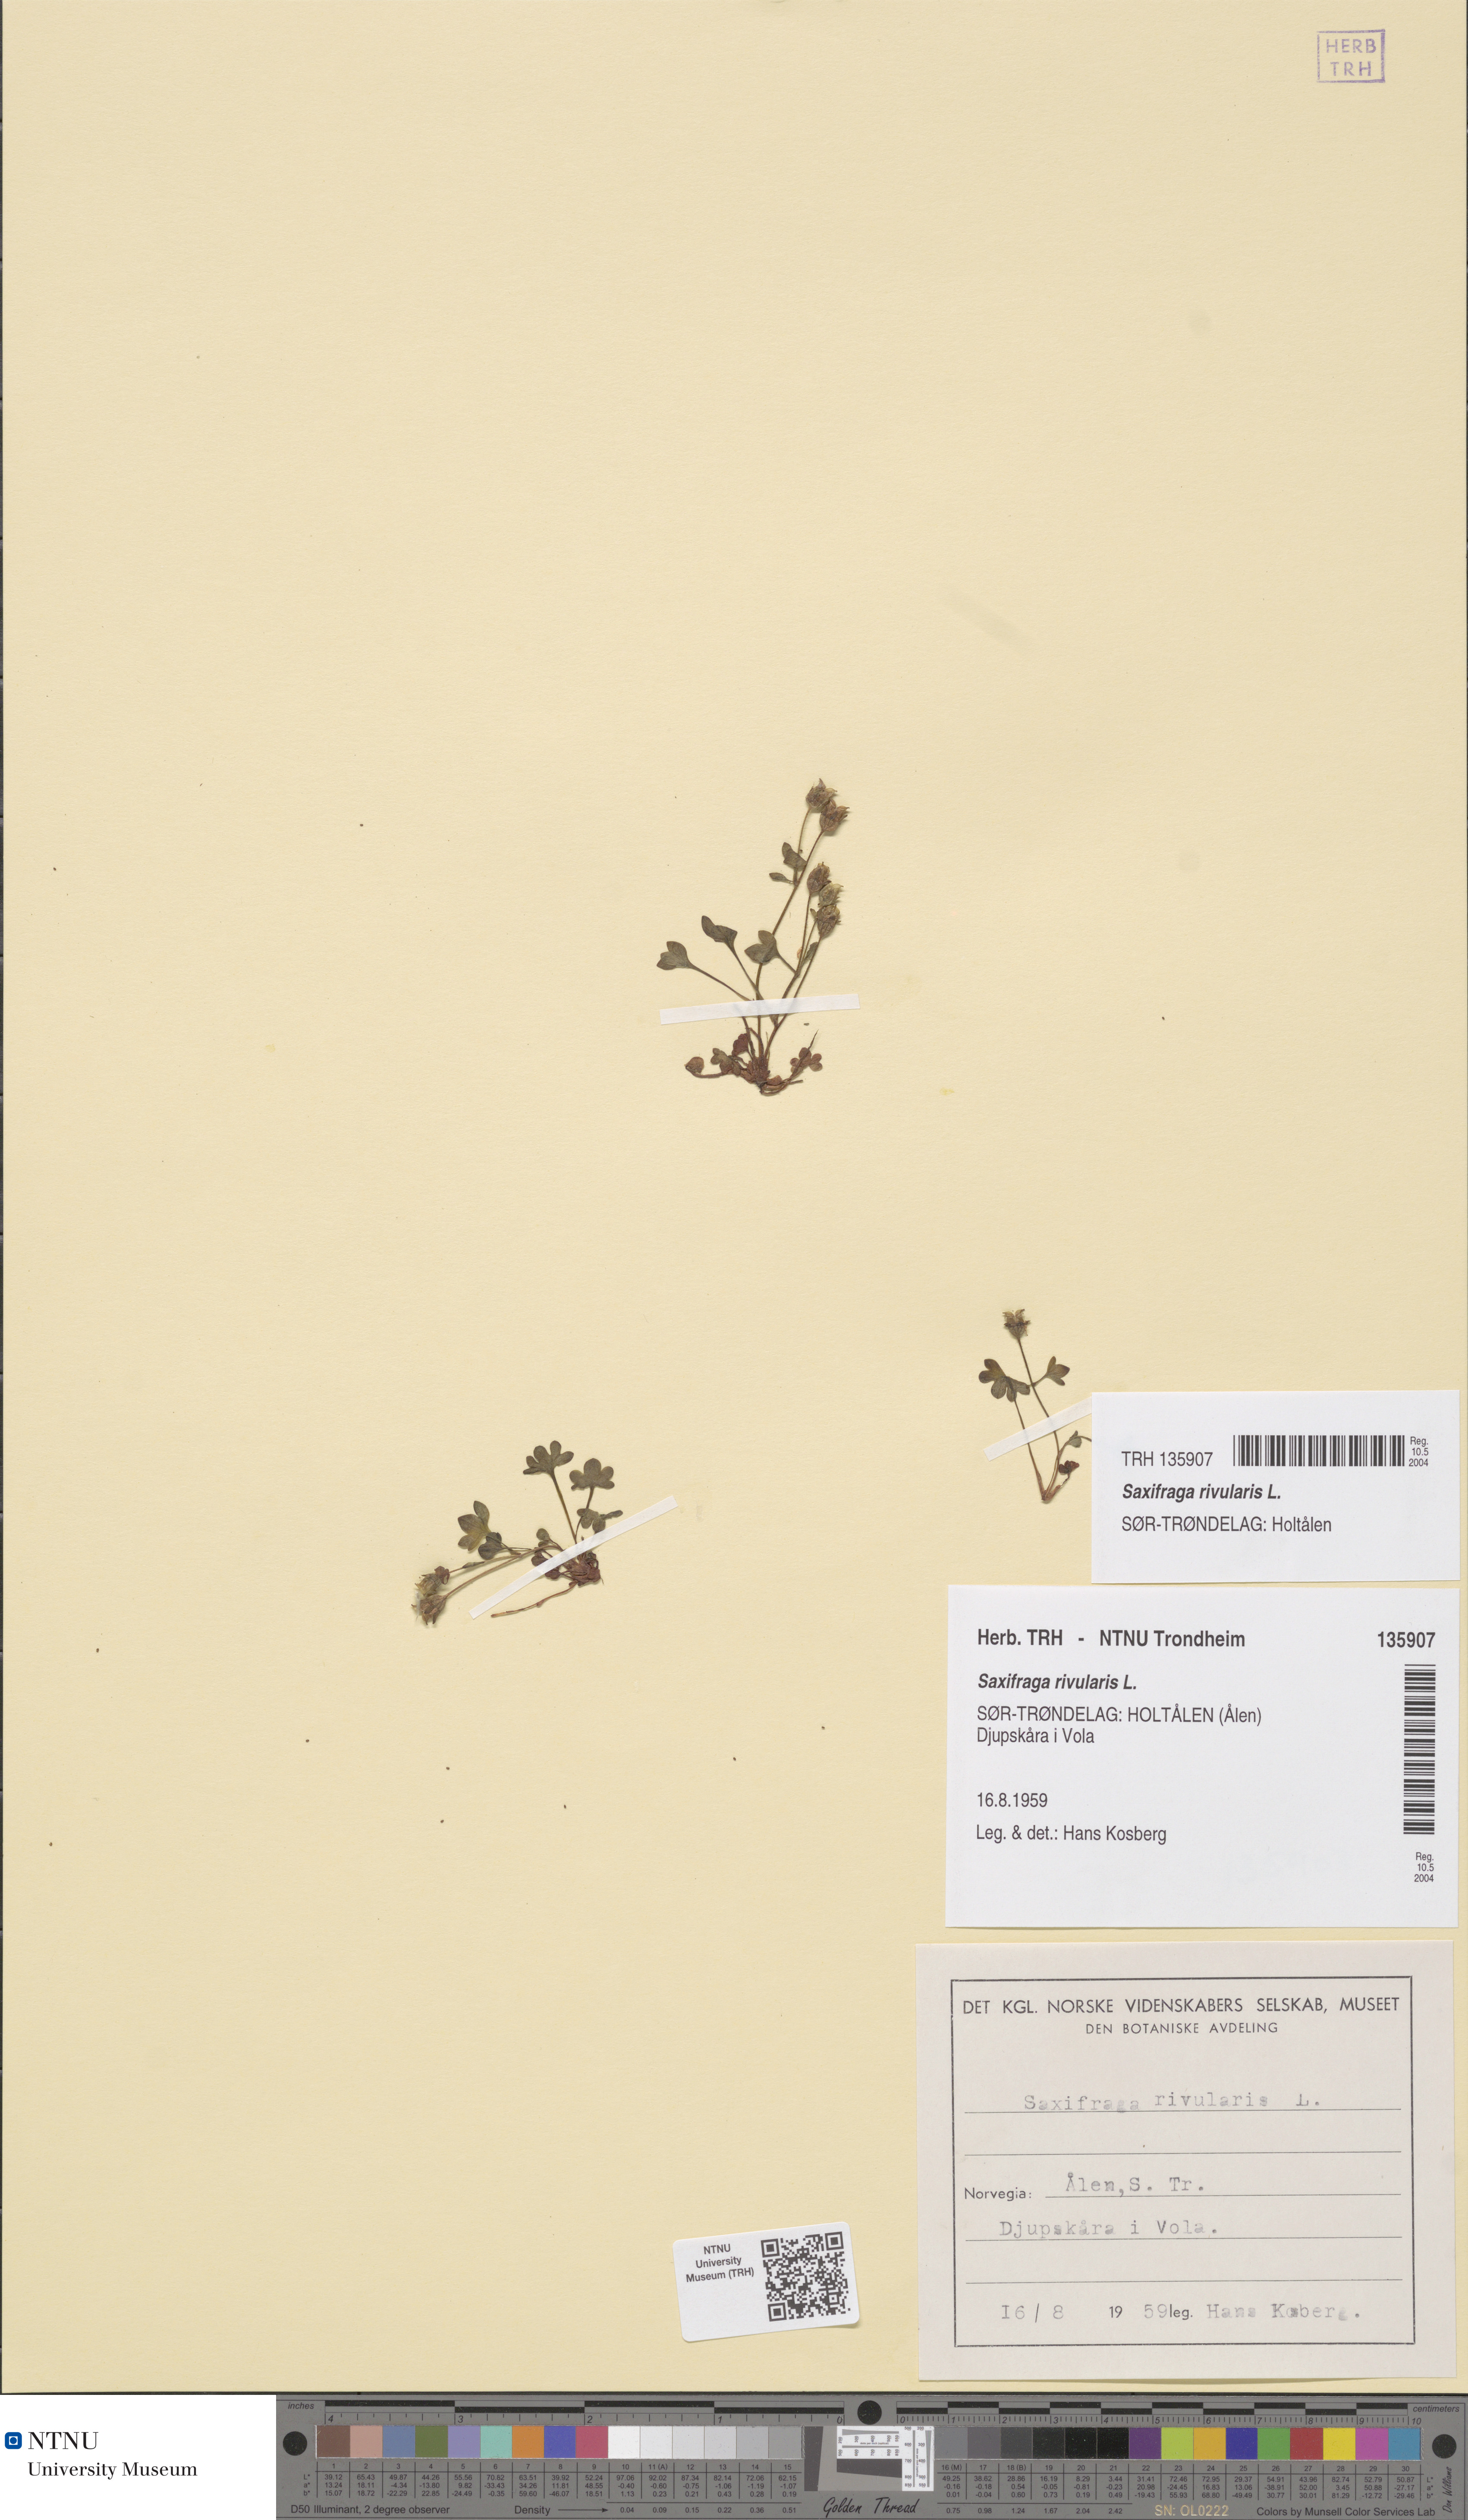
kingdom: Plantae
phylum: Tracheophyta
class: Magnoliopsida
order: Saxifragales
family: Saxifragaceae
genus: Saxifraga
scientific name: Saxifraga rivularis
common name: Highland saxifrage
